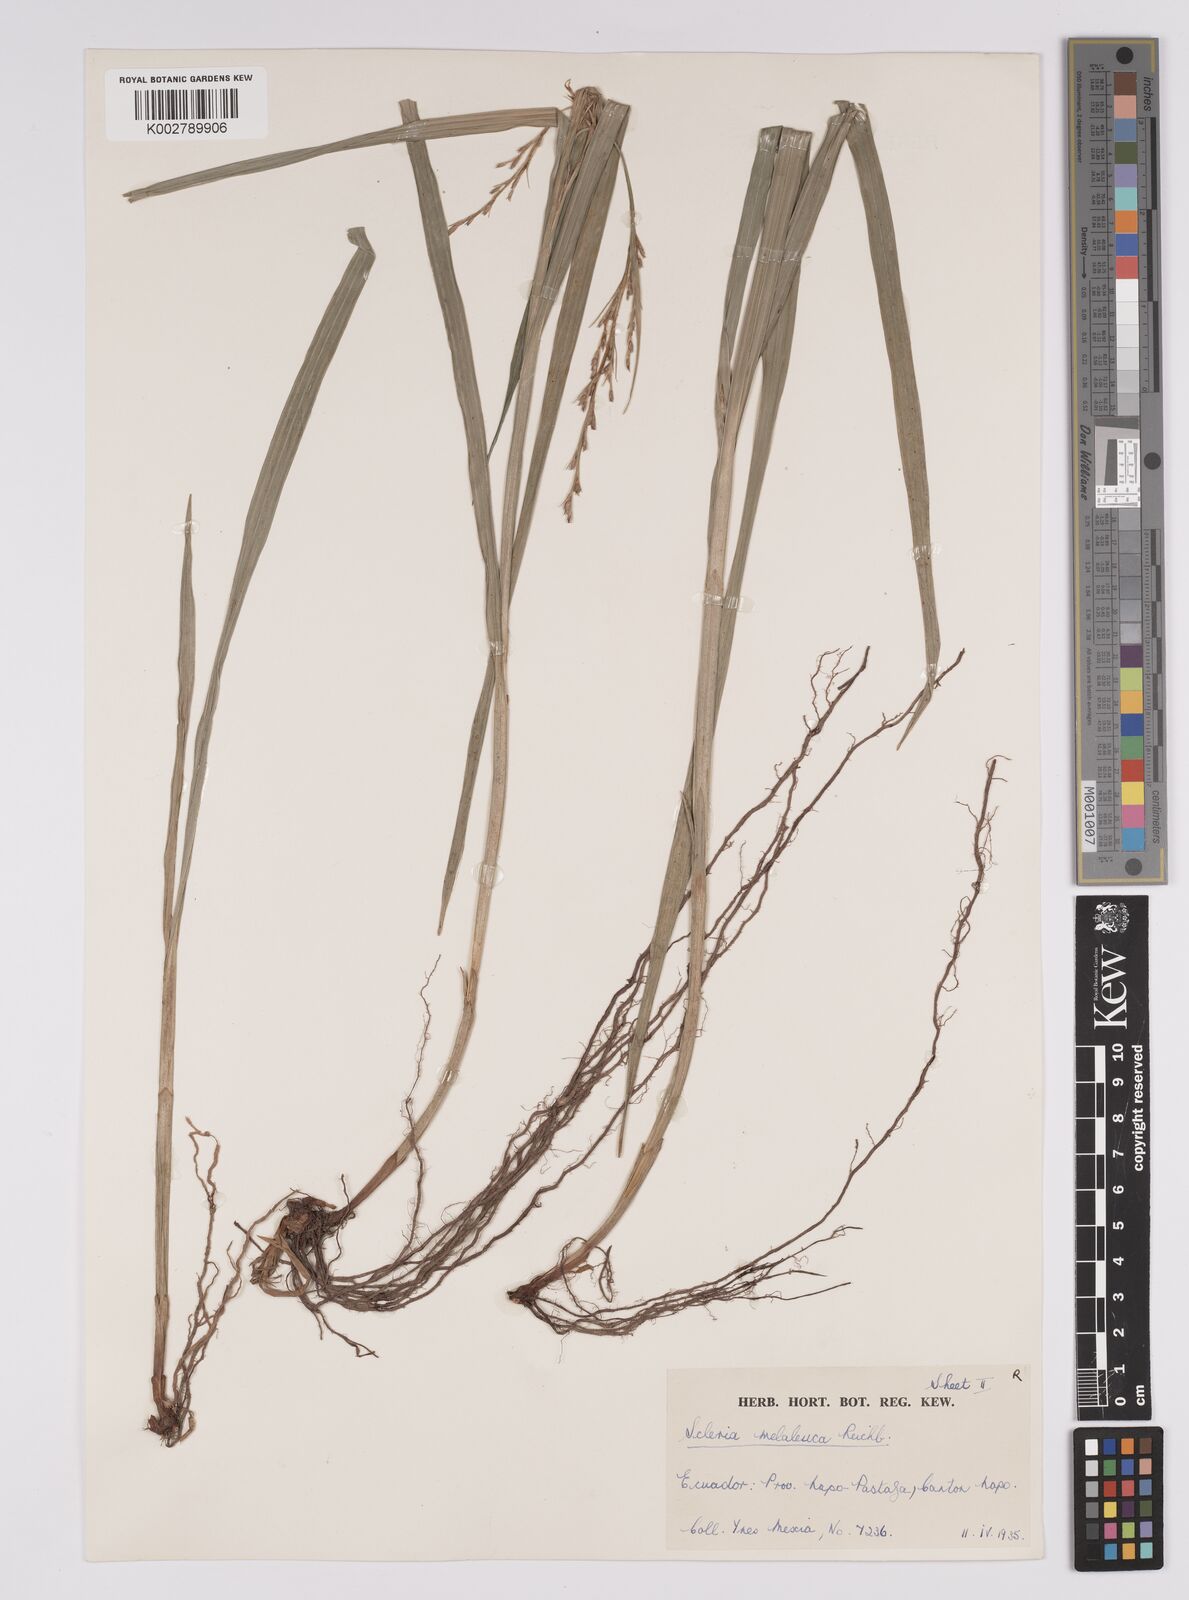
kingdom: Plantae
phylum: Tracheophyta
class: Liliopsida
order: Poales
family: Cyperaceae
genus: Scleria
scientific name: Scleria gaertneri
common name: Cortadera blanca
